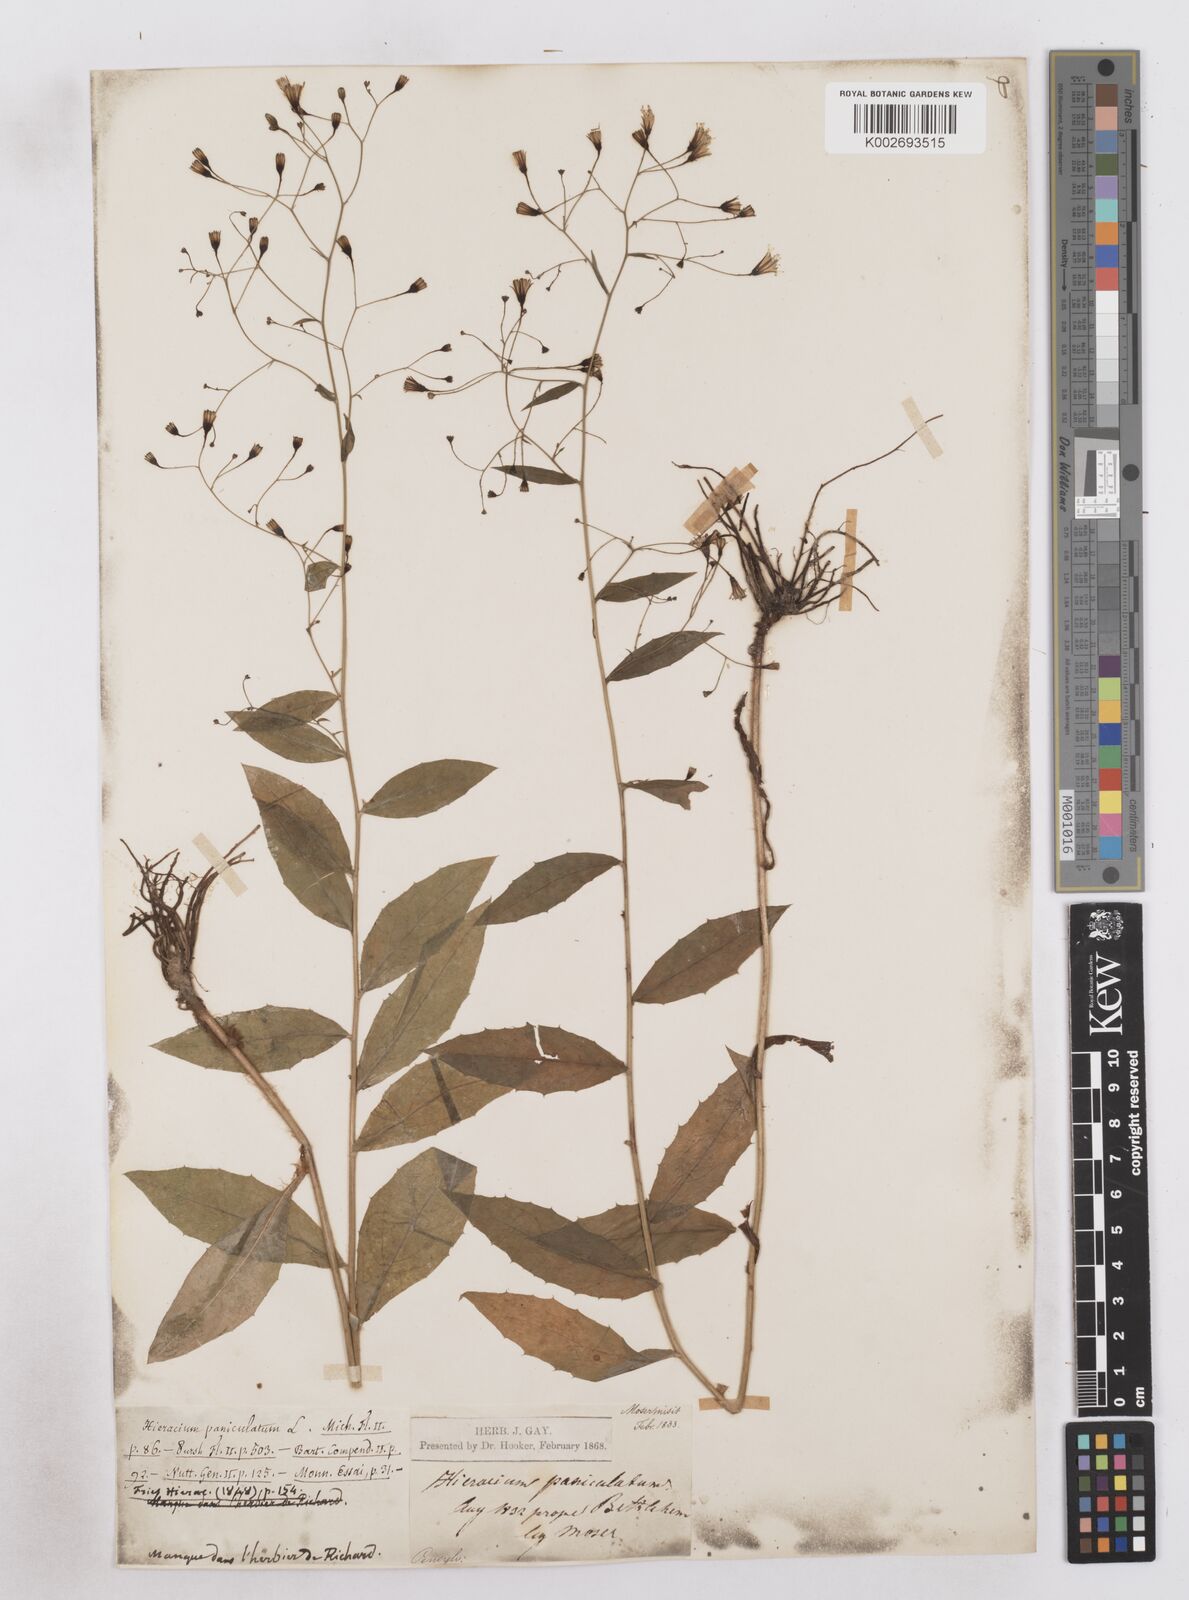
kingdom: Plantae
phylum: Tracheophyta
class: Magnoliopsida
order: Asterales
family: Asteraceae
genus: Hieracium
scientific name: Hieracium paniculatum
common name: Allegheny hawkweed
